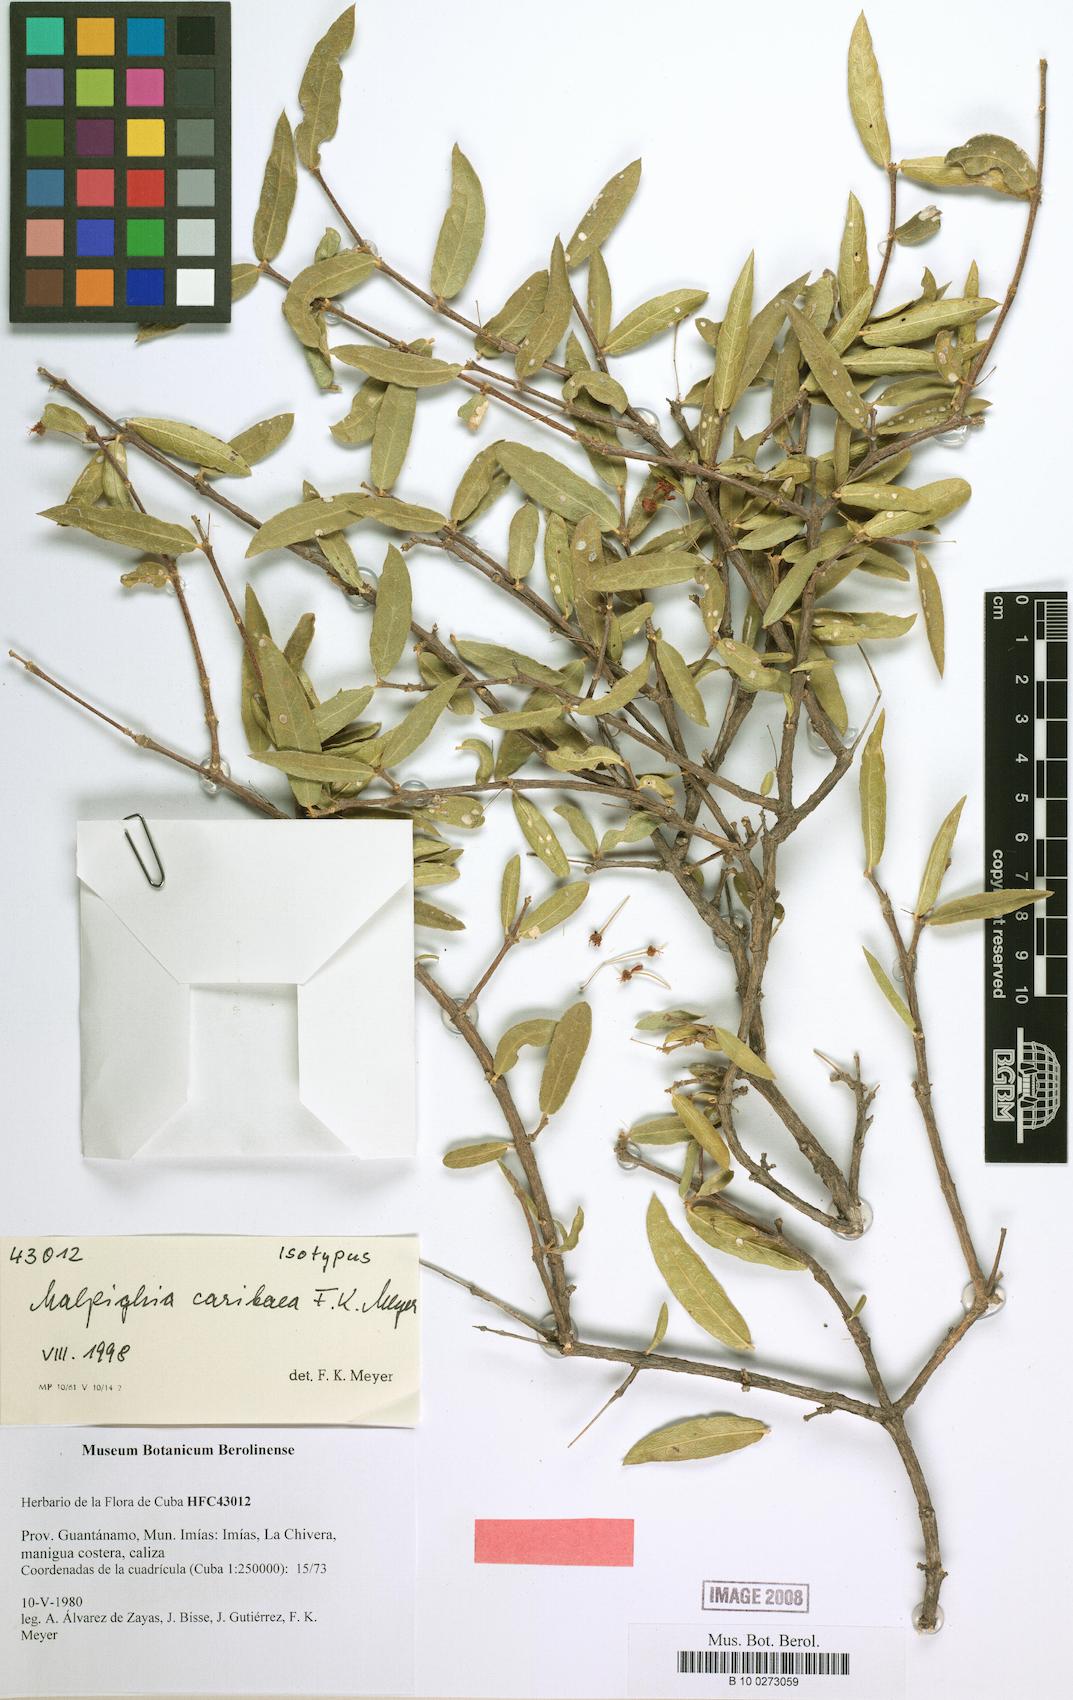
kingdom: Plantae
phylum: Tracheophyta
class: Magnoliopsida
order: Malpighiales
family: Malpighiaceae
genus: Malpighia
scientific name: Malpighia caribaea
